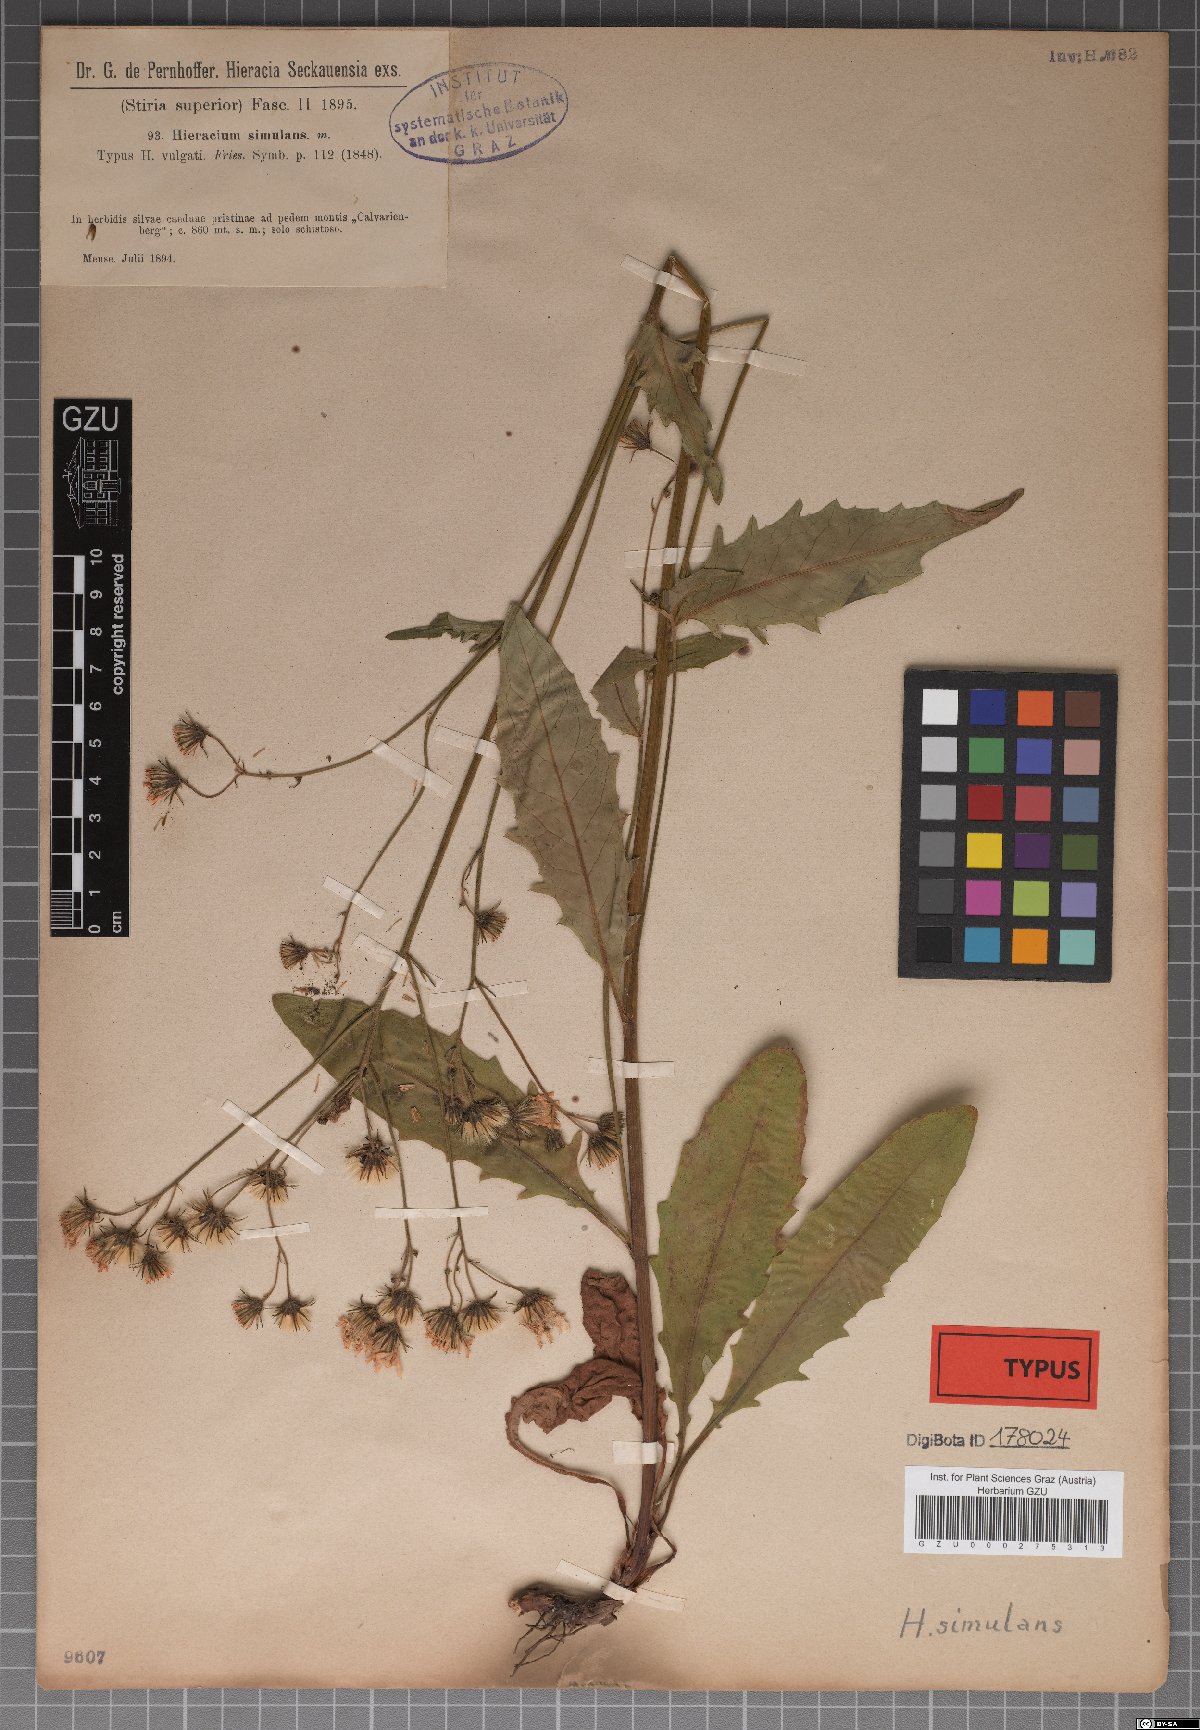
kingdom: Plantae
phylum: Tracheophyta
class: Magnoliopsida
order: Asterales
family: Asteraceae
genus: Hieracium
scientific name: Hieracium simulans
